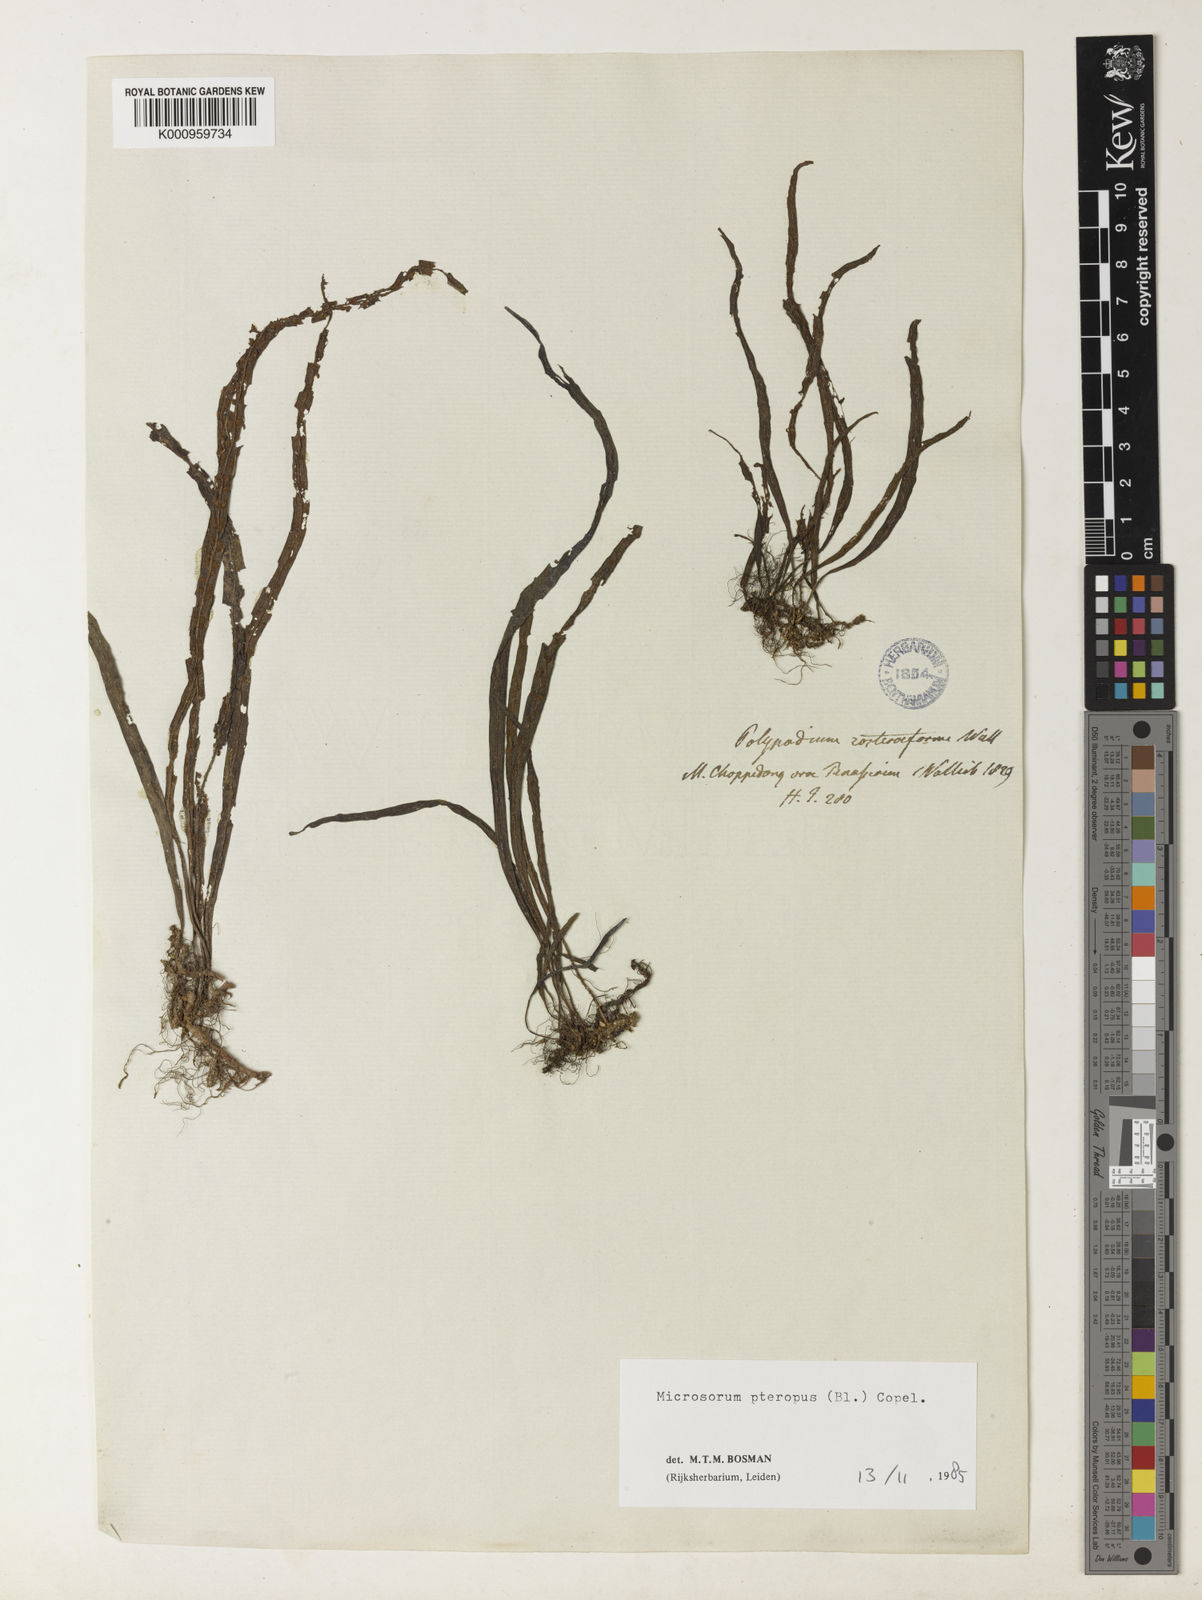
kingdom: Plantae
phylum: Tracheophyta
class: Polypodiopsida
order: Polypodiales
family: Polypodiaceae
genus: Leptochilus
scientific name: Leptochilus pteropus
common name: Java fern
